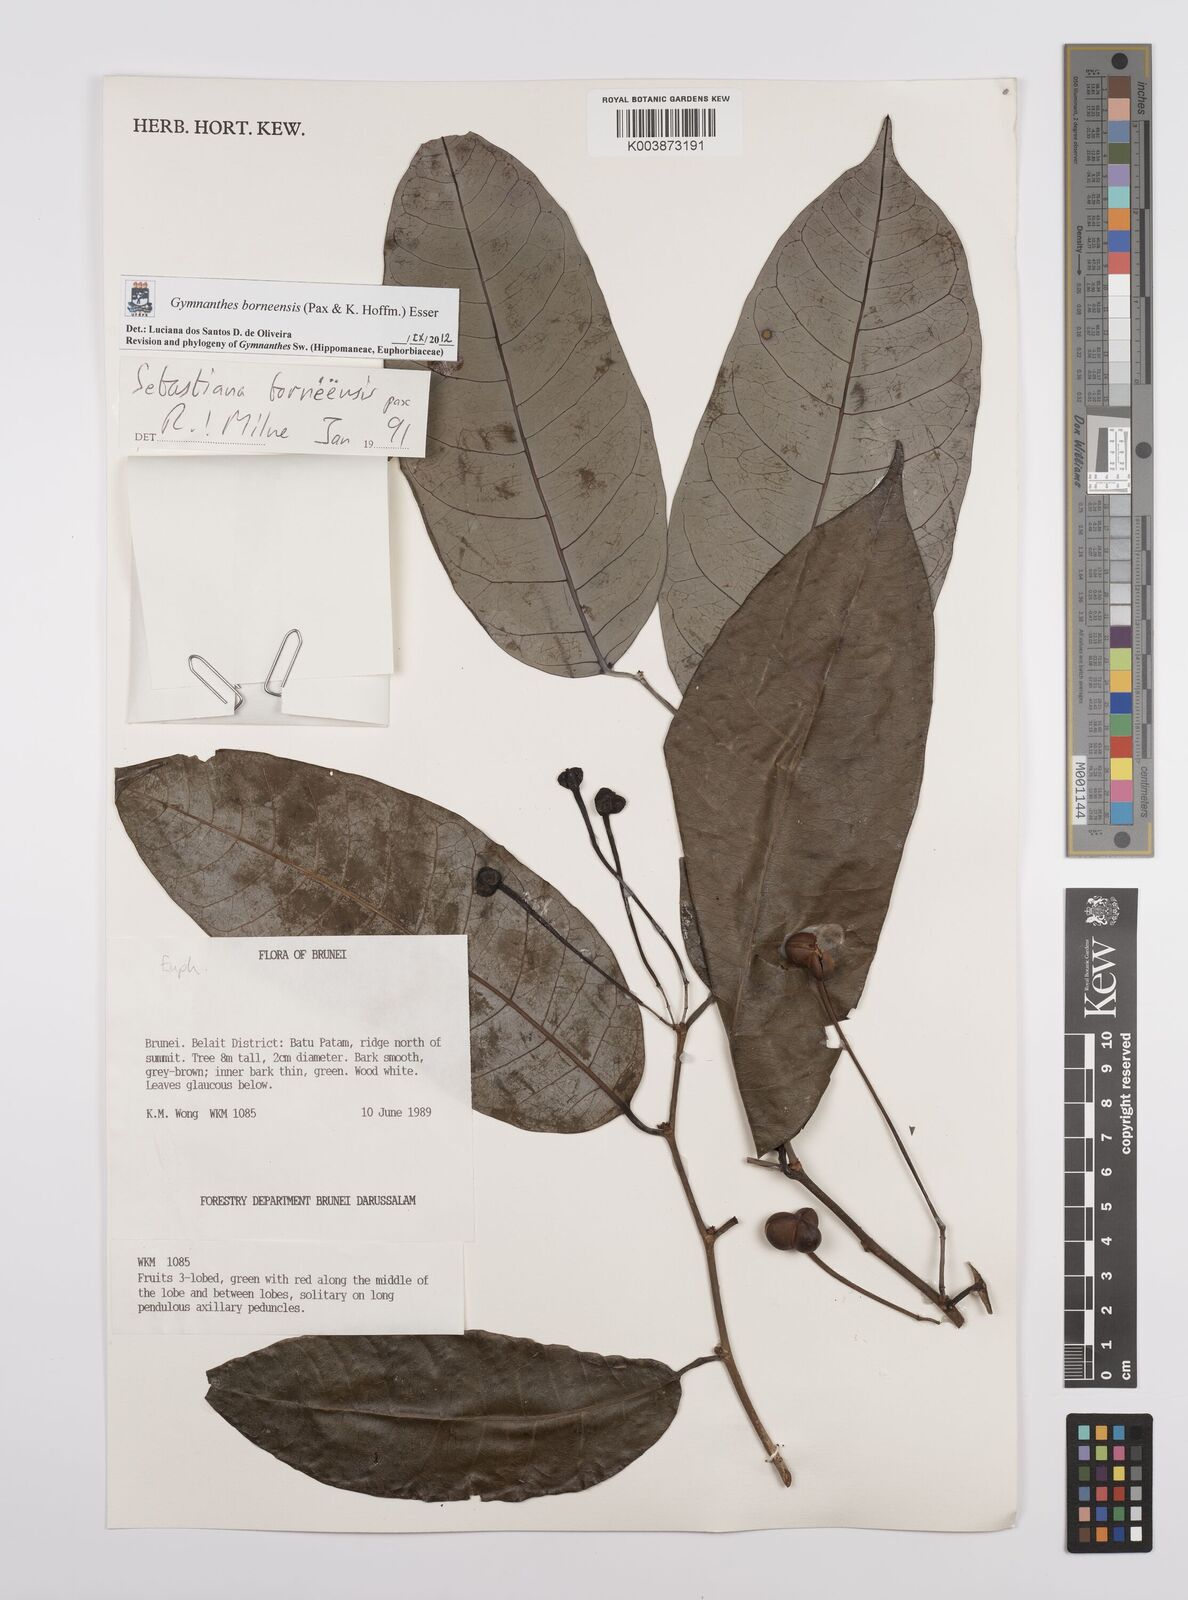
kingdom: Plantae
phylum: Tracheophyta
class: Magnoliopsida
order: Malpighiales
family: Euphorbiaceae
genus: Gymnanthes
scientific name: Gymnanthes borneensis
